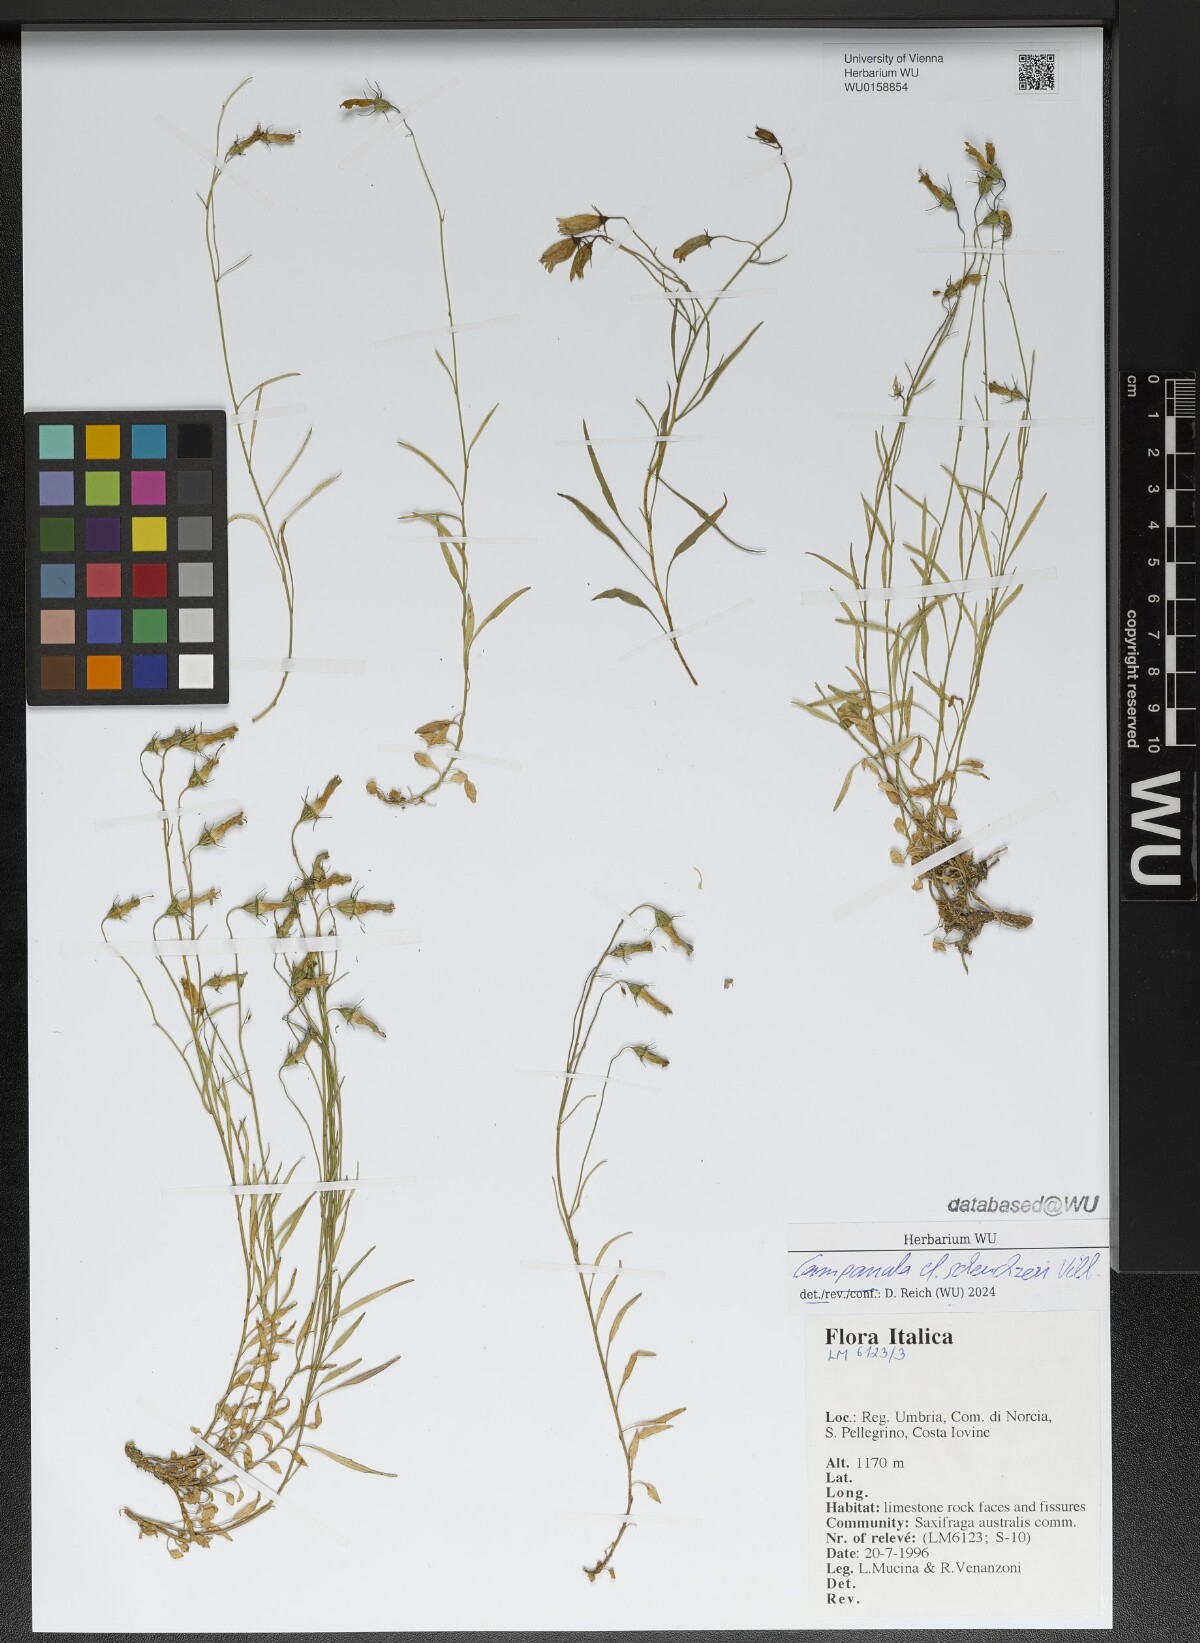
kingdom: Plantae
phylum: Tracheophyta
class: Magnoliopsida
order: Asterales
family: Campanulaceae
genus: Campanula
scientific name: Campanula scheuchzeri
